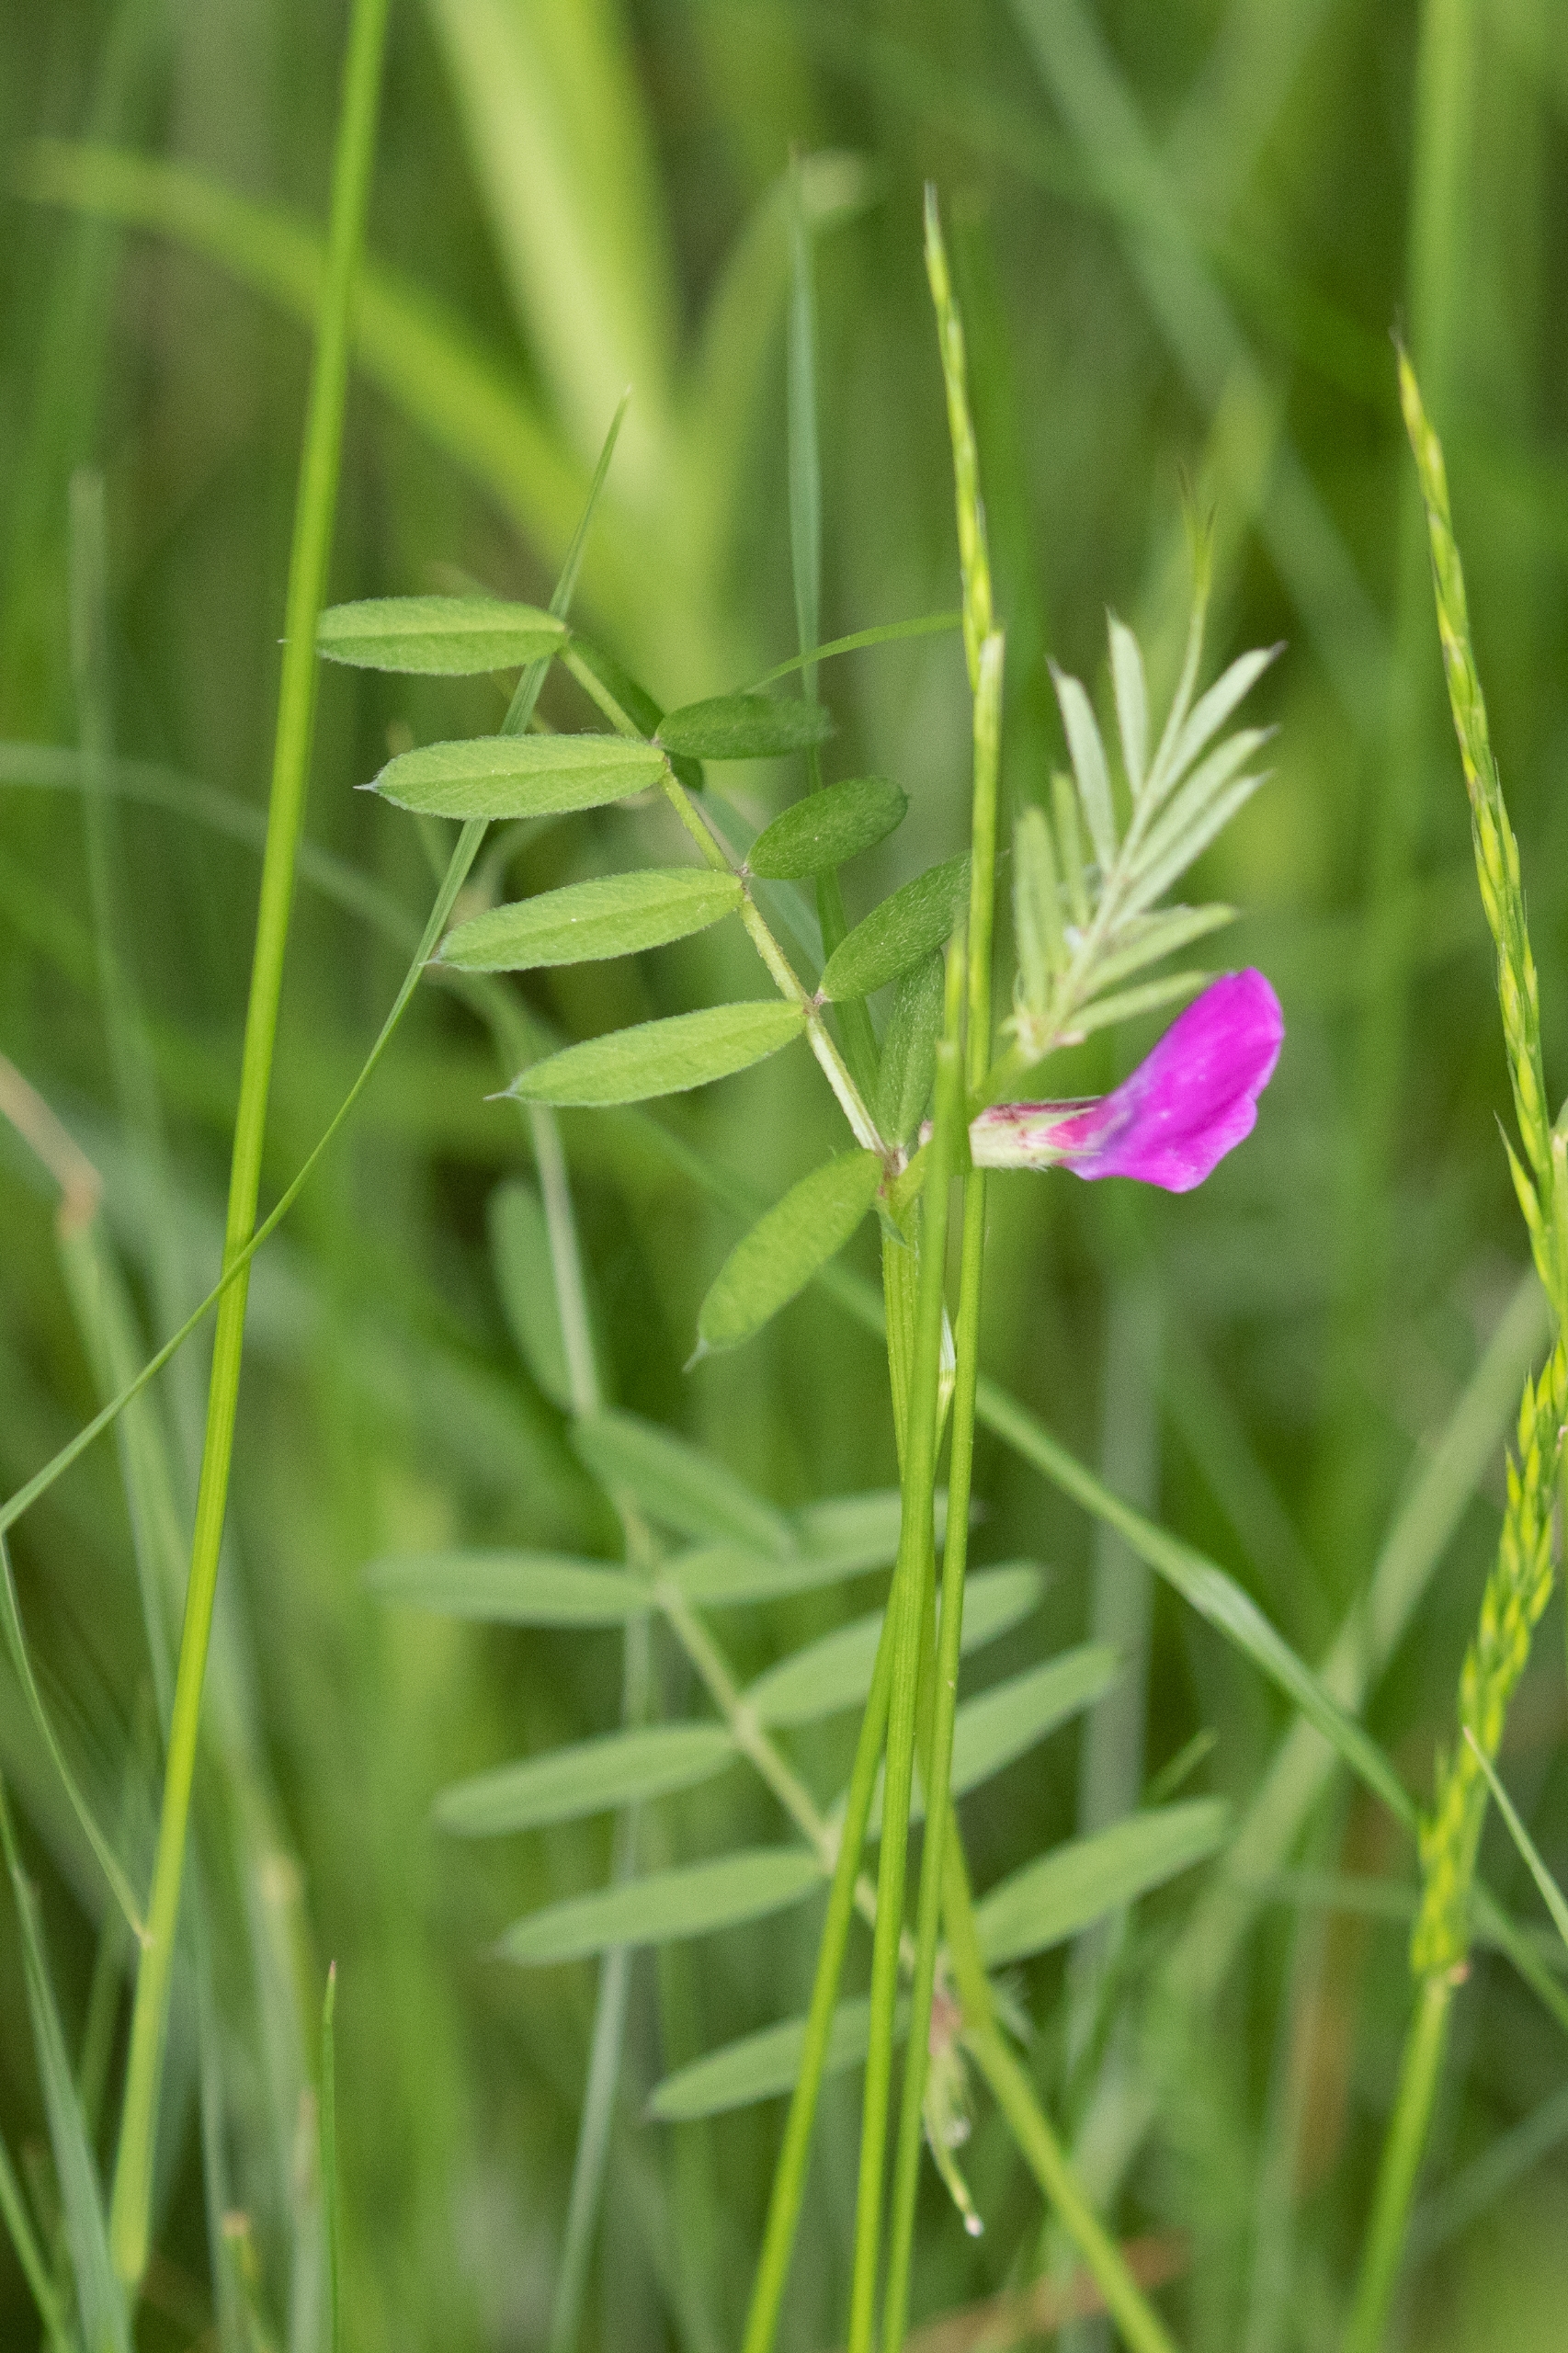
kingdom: Plantae
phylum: Tracheophyta
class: Magnoliopsida
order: Fabales
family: Fabaceae
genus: Vicia
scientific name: Vicia sativa
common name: Smalbladet vikke
